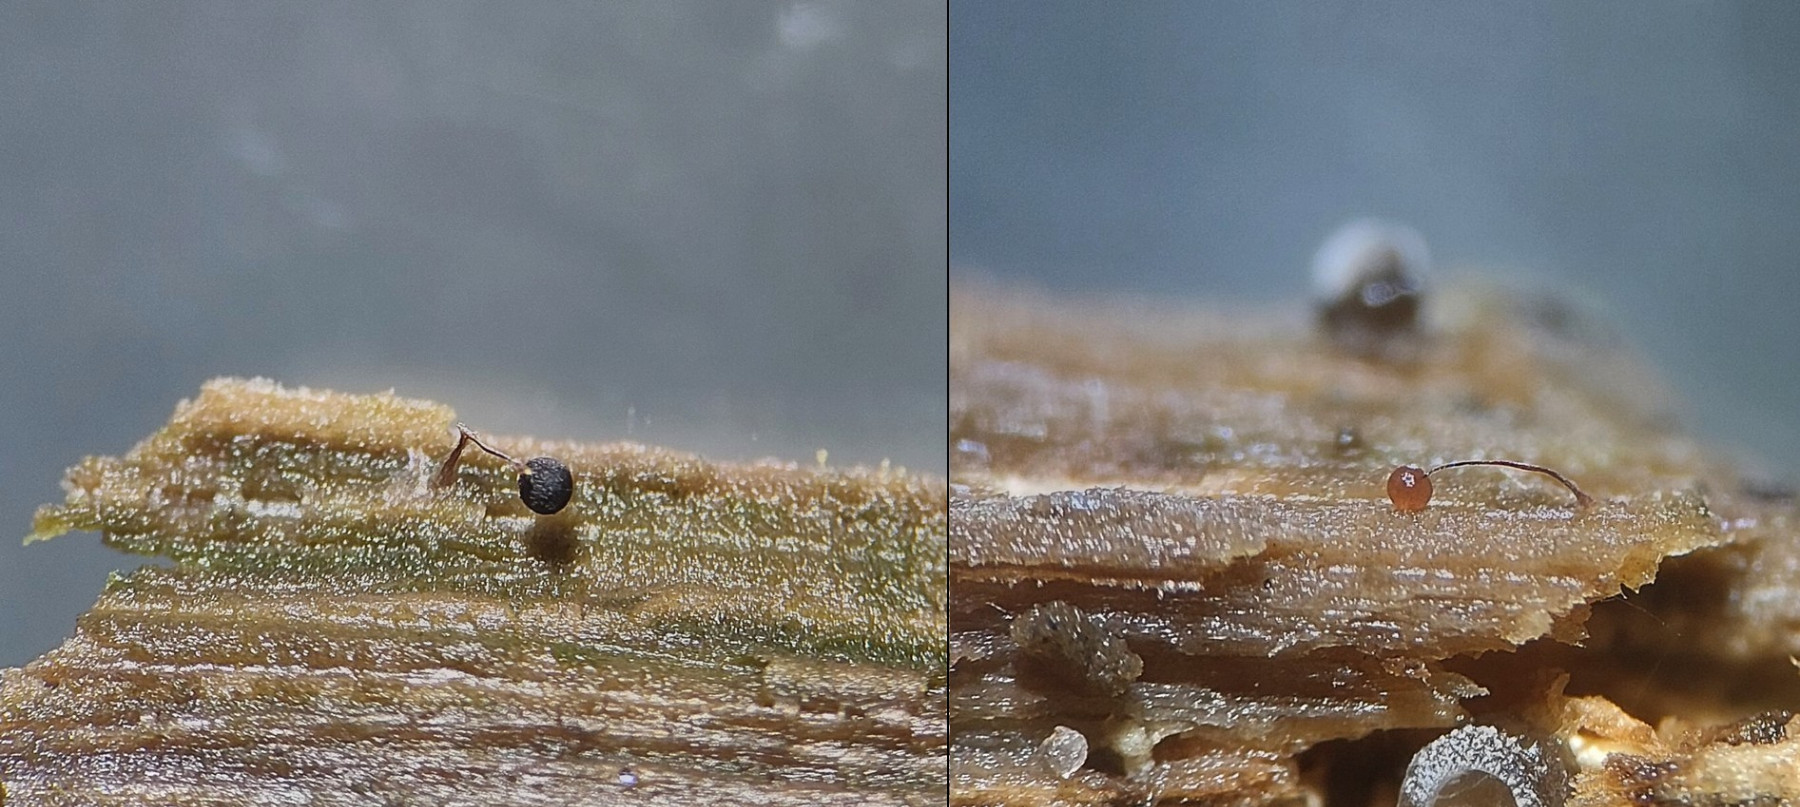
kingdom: Protozoa
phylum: Mycetozoa
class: Myxomycetes
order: Stemonitidales
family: Stemonitidaceae
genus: Comatricha
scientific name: Comatricha
